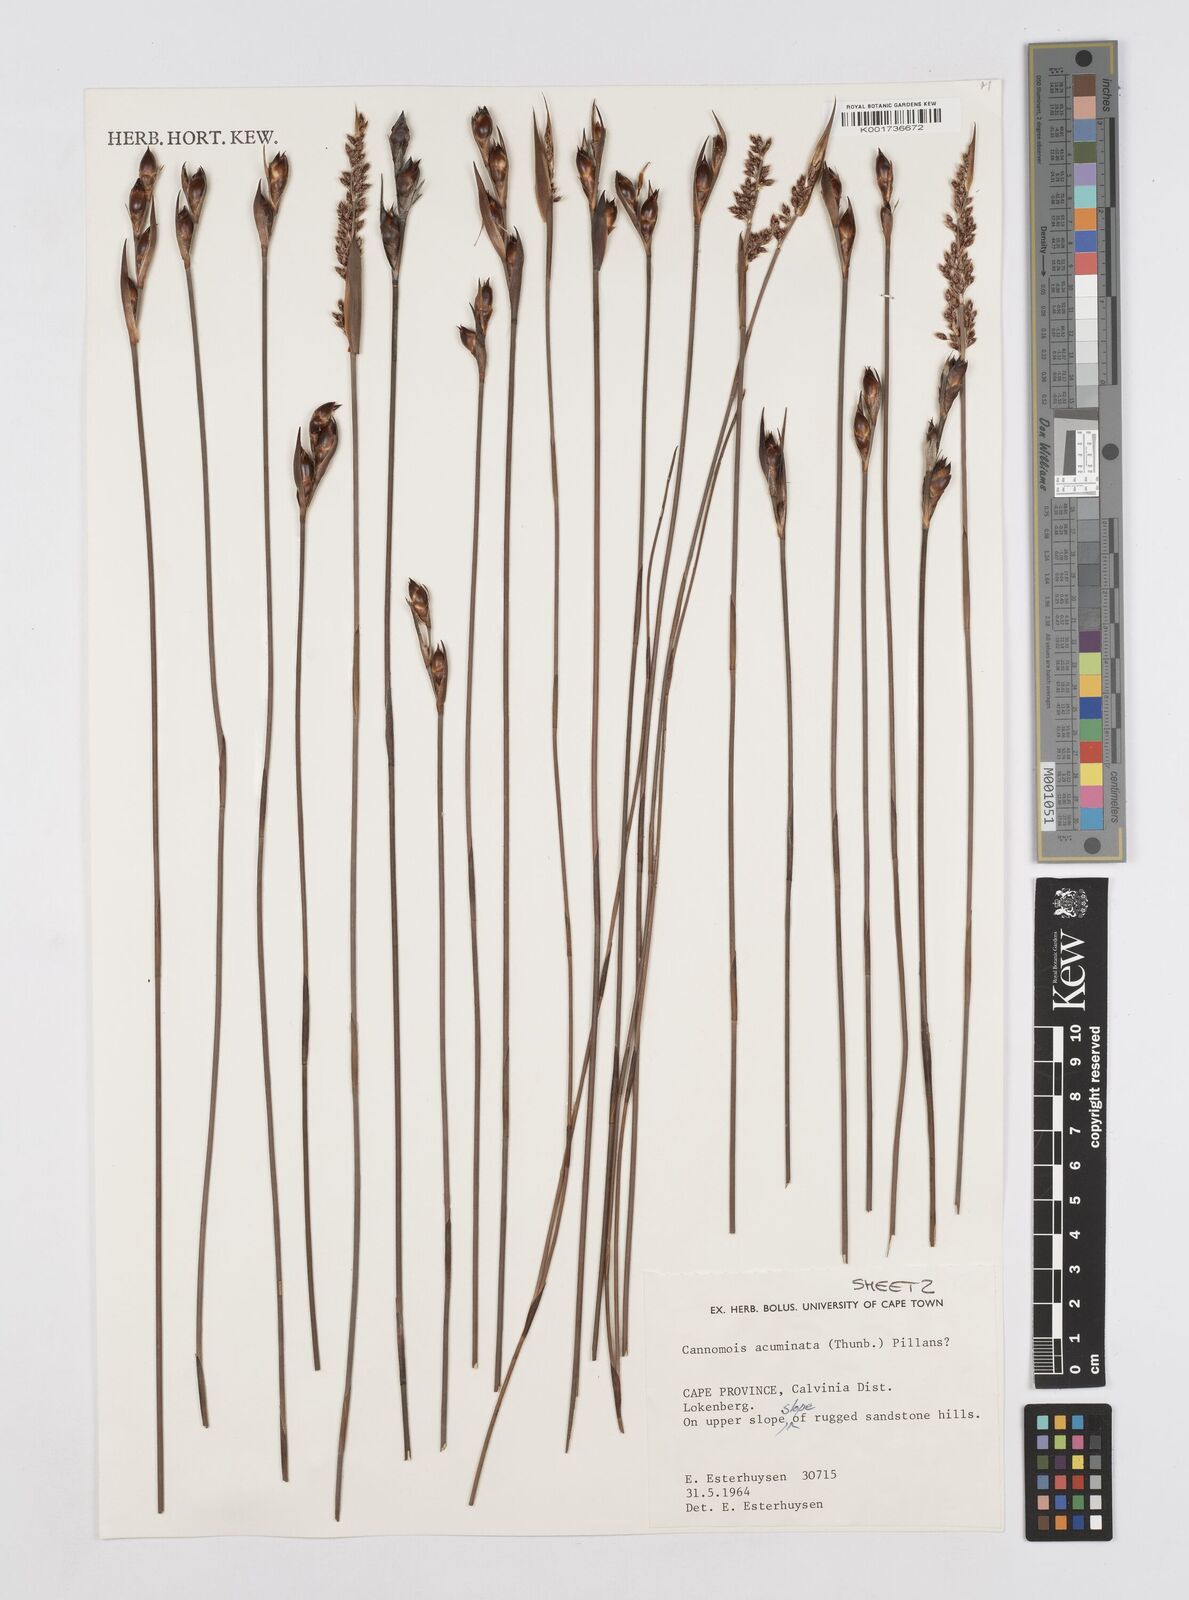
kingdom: Plantae
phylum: Tracheophyta
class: Liliopsida
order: Poales
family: Restionaceae
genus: Cannomois
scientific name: Cannomois parviflora
